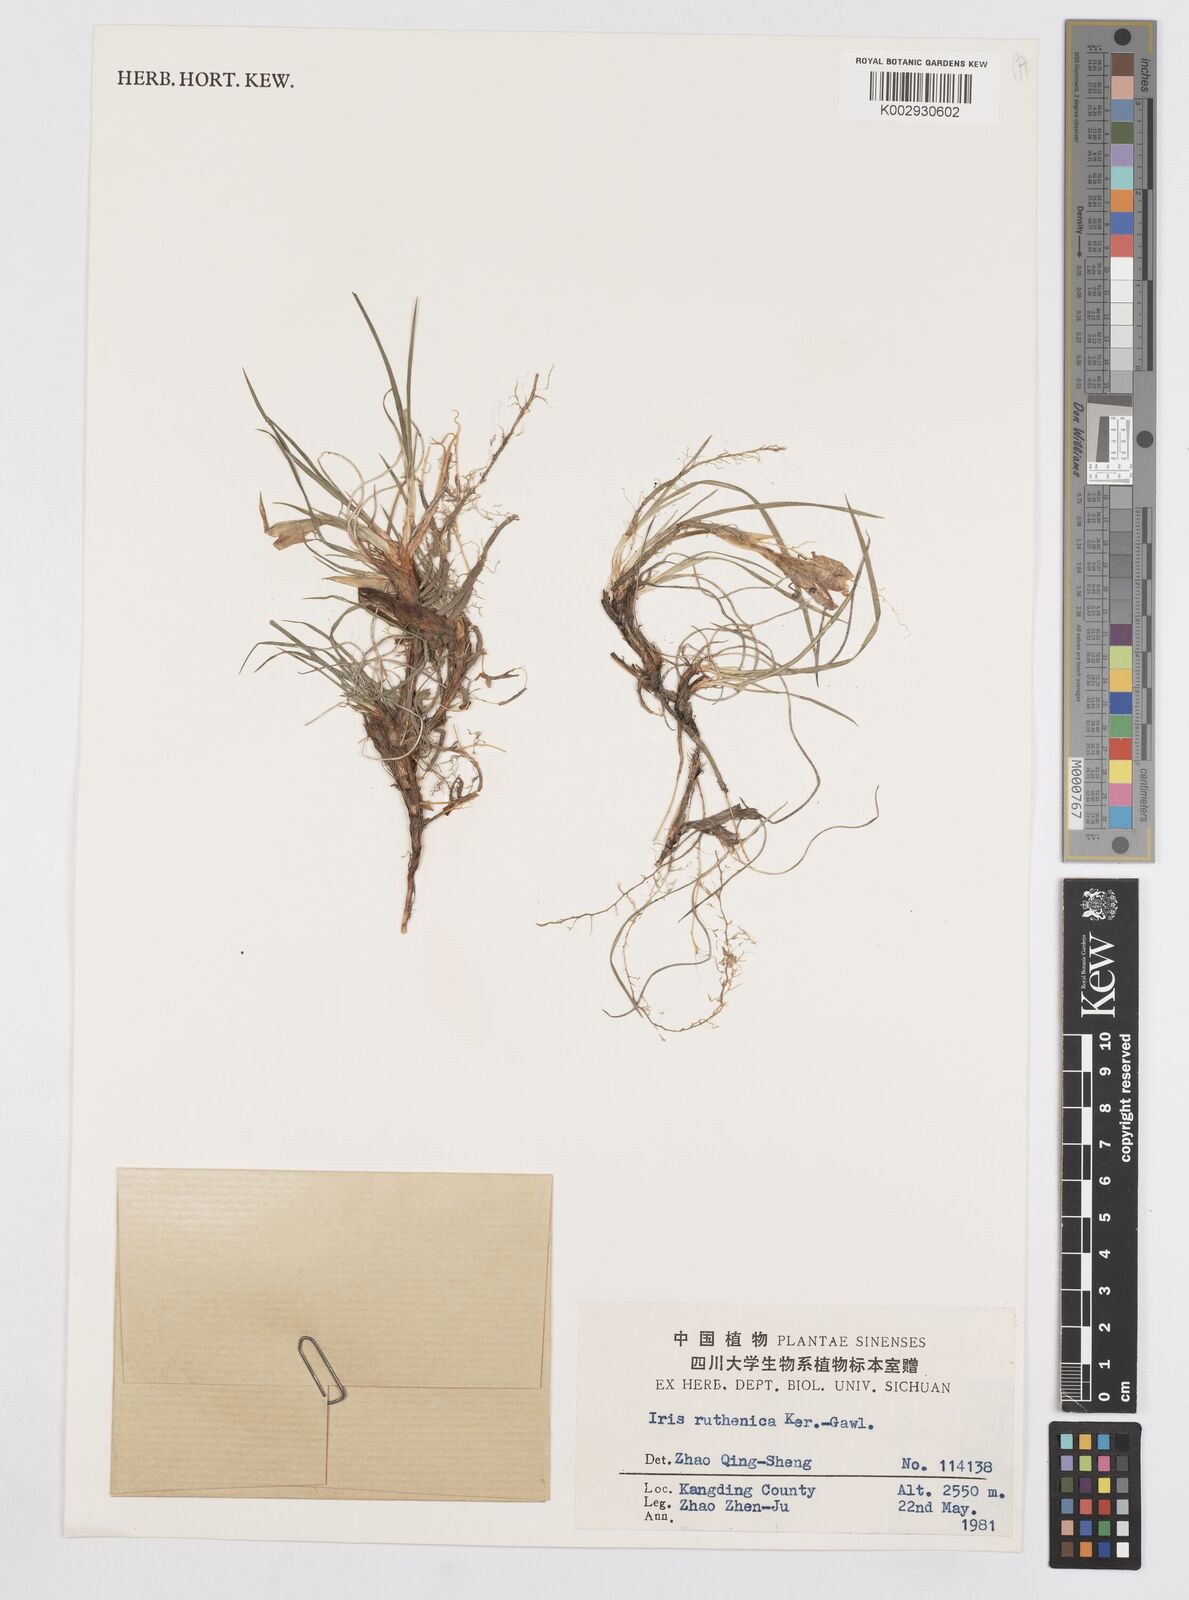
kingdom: Plantae
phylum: Tracheophyta
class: Liliopsida
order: Asparagales
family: Iridaceae
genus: Iris
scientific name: Iris ruthenica
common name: Purple-bract iris
